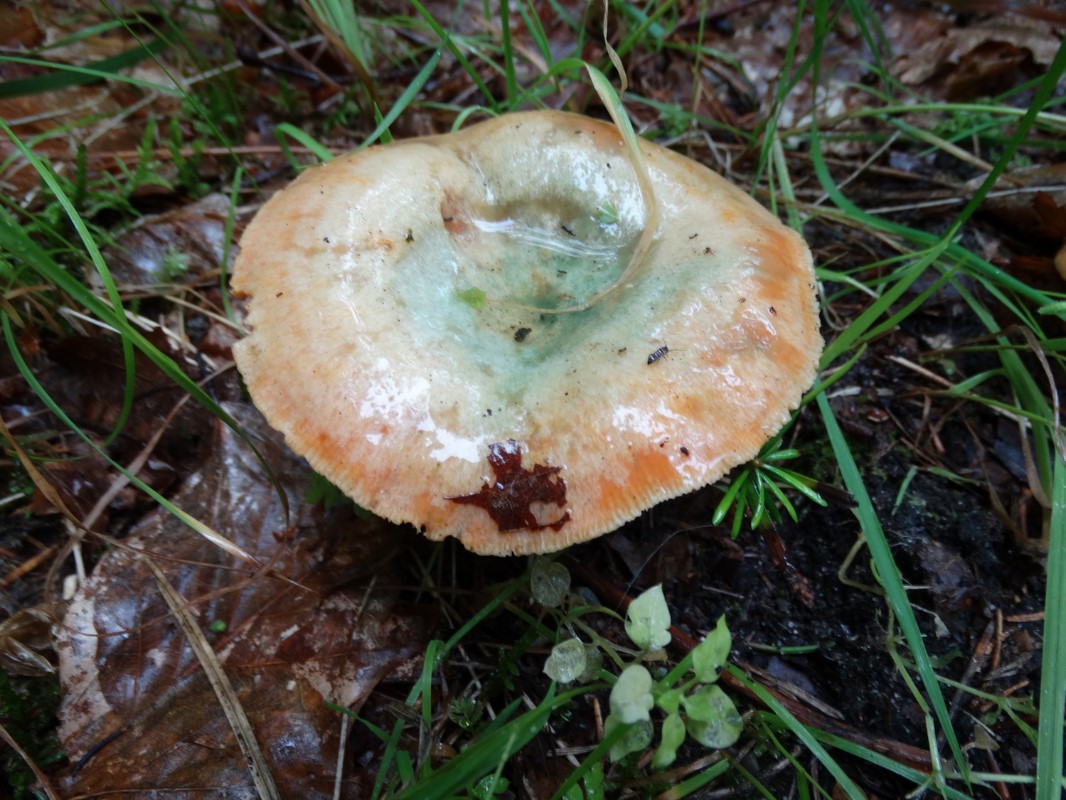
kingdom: Fungi
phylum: Basidiomycota
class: Agaricomycetes
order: Russulales
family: Russulaceae
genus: Lactarius
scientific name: Lactarius deterrimus
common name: gran-mælkehat
